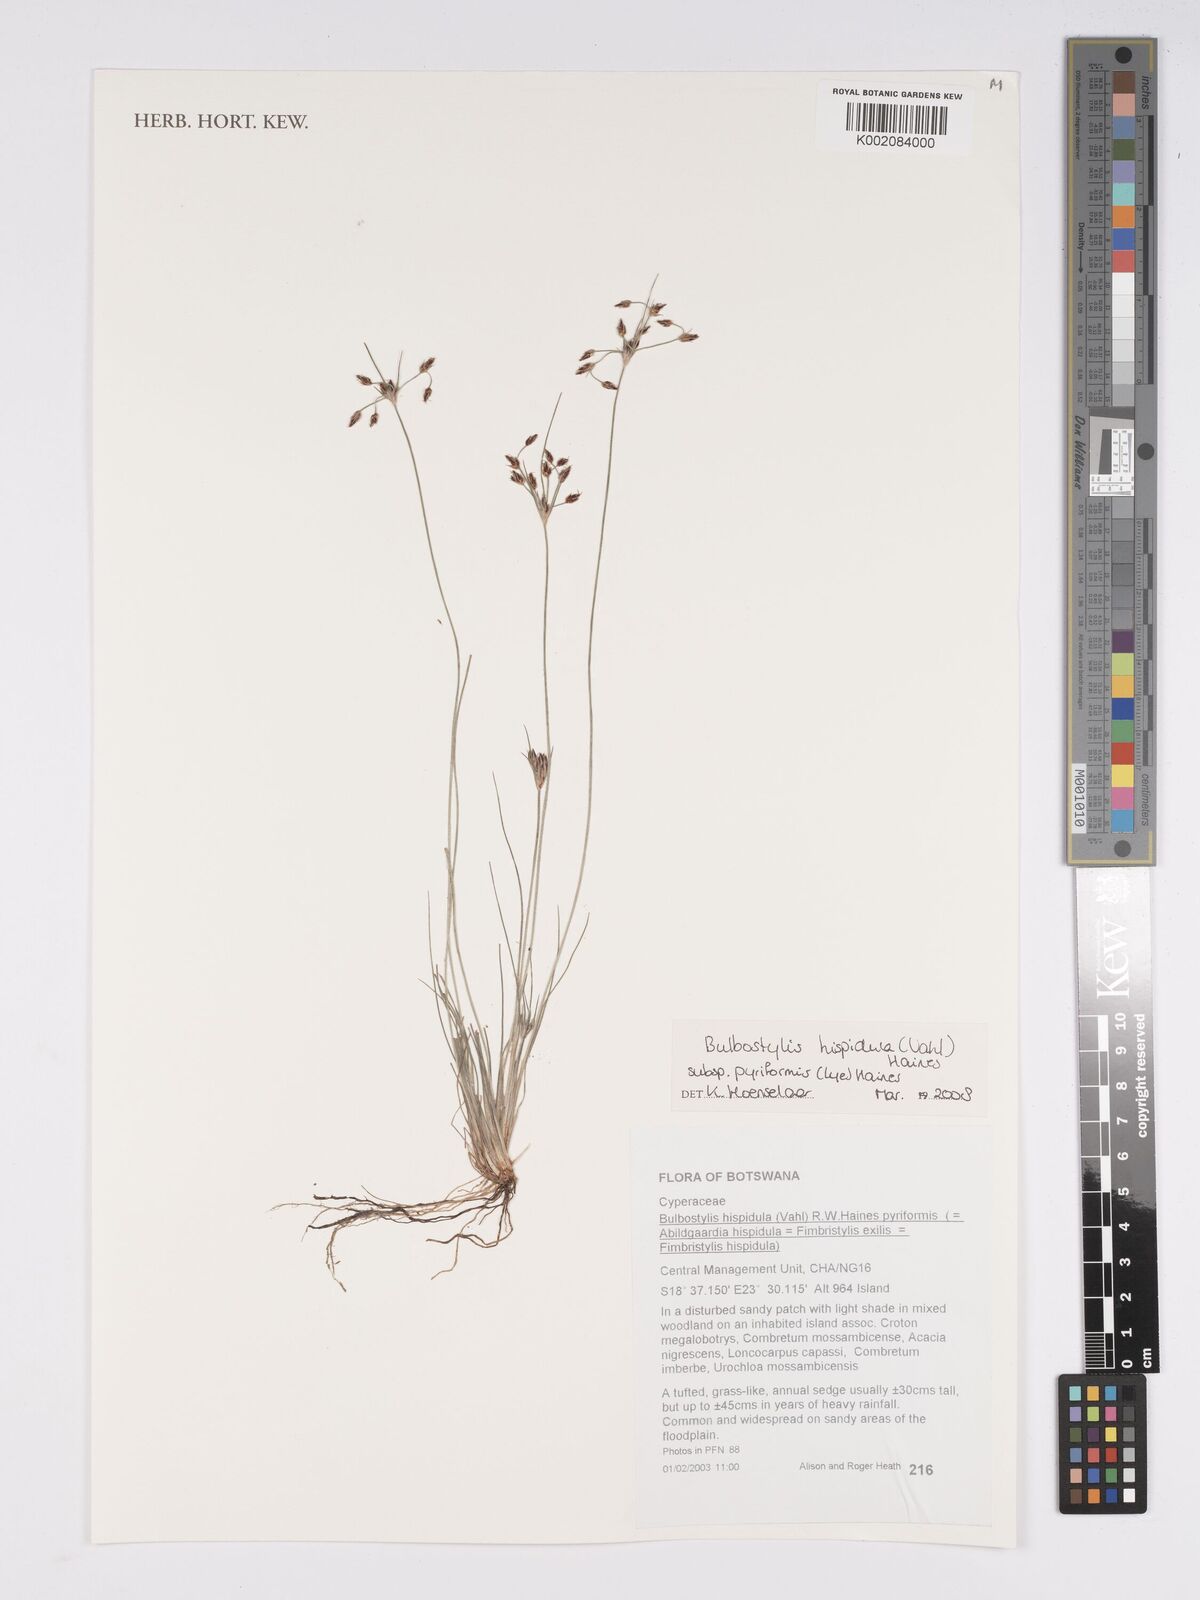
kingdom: Plantae
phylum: Tracheophyta
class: Liliopsida
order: Poales
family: Cyperaceae
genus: Bulbostylis
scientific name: Bulbostylis hispidula
